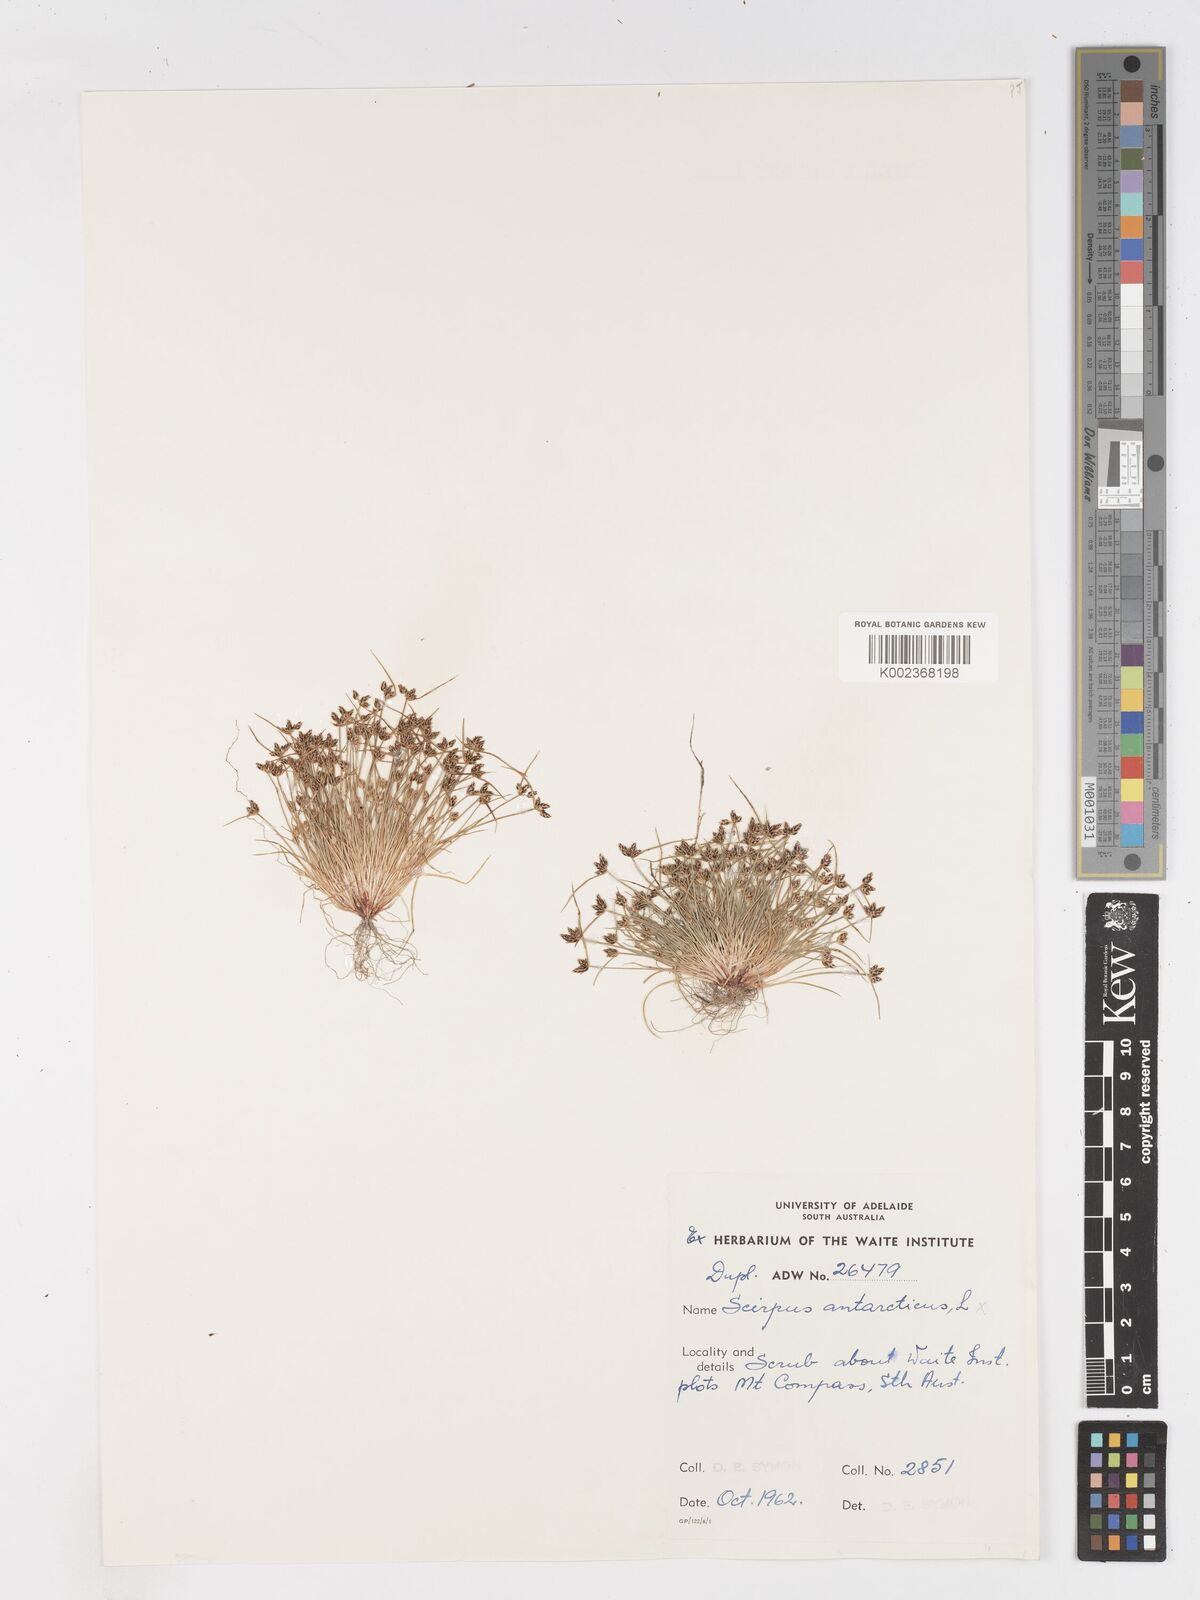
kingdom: Plantae
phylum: Tracheophyta
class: Liliopsida
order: Poales
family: Cyperaceae
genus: Isolepis
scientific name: Isolepis antarctica
